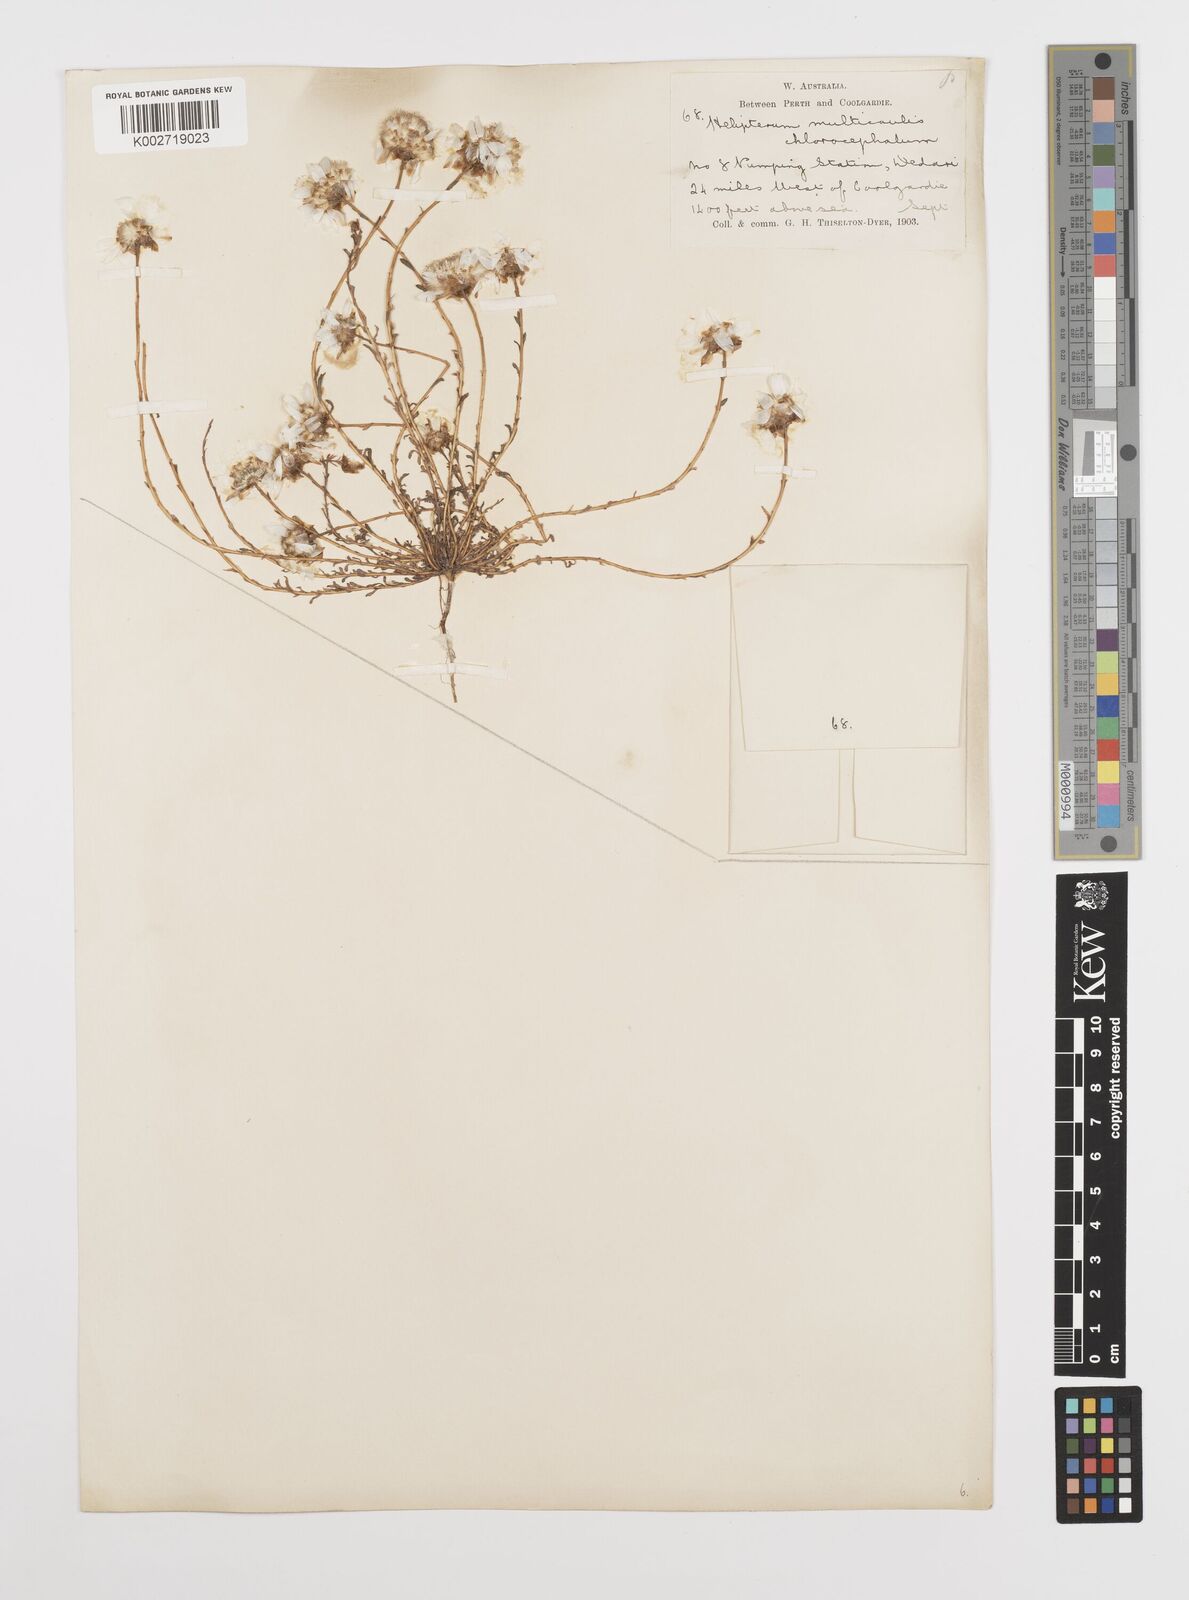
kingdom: Plantae
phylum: Tracheophyta
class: Magnoliopsida
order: Asterales
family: Asteraceae
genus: Rhodanthe
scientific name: Rhodanthe chlorocephala
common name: Rosy sunray
